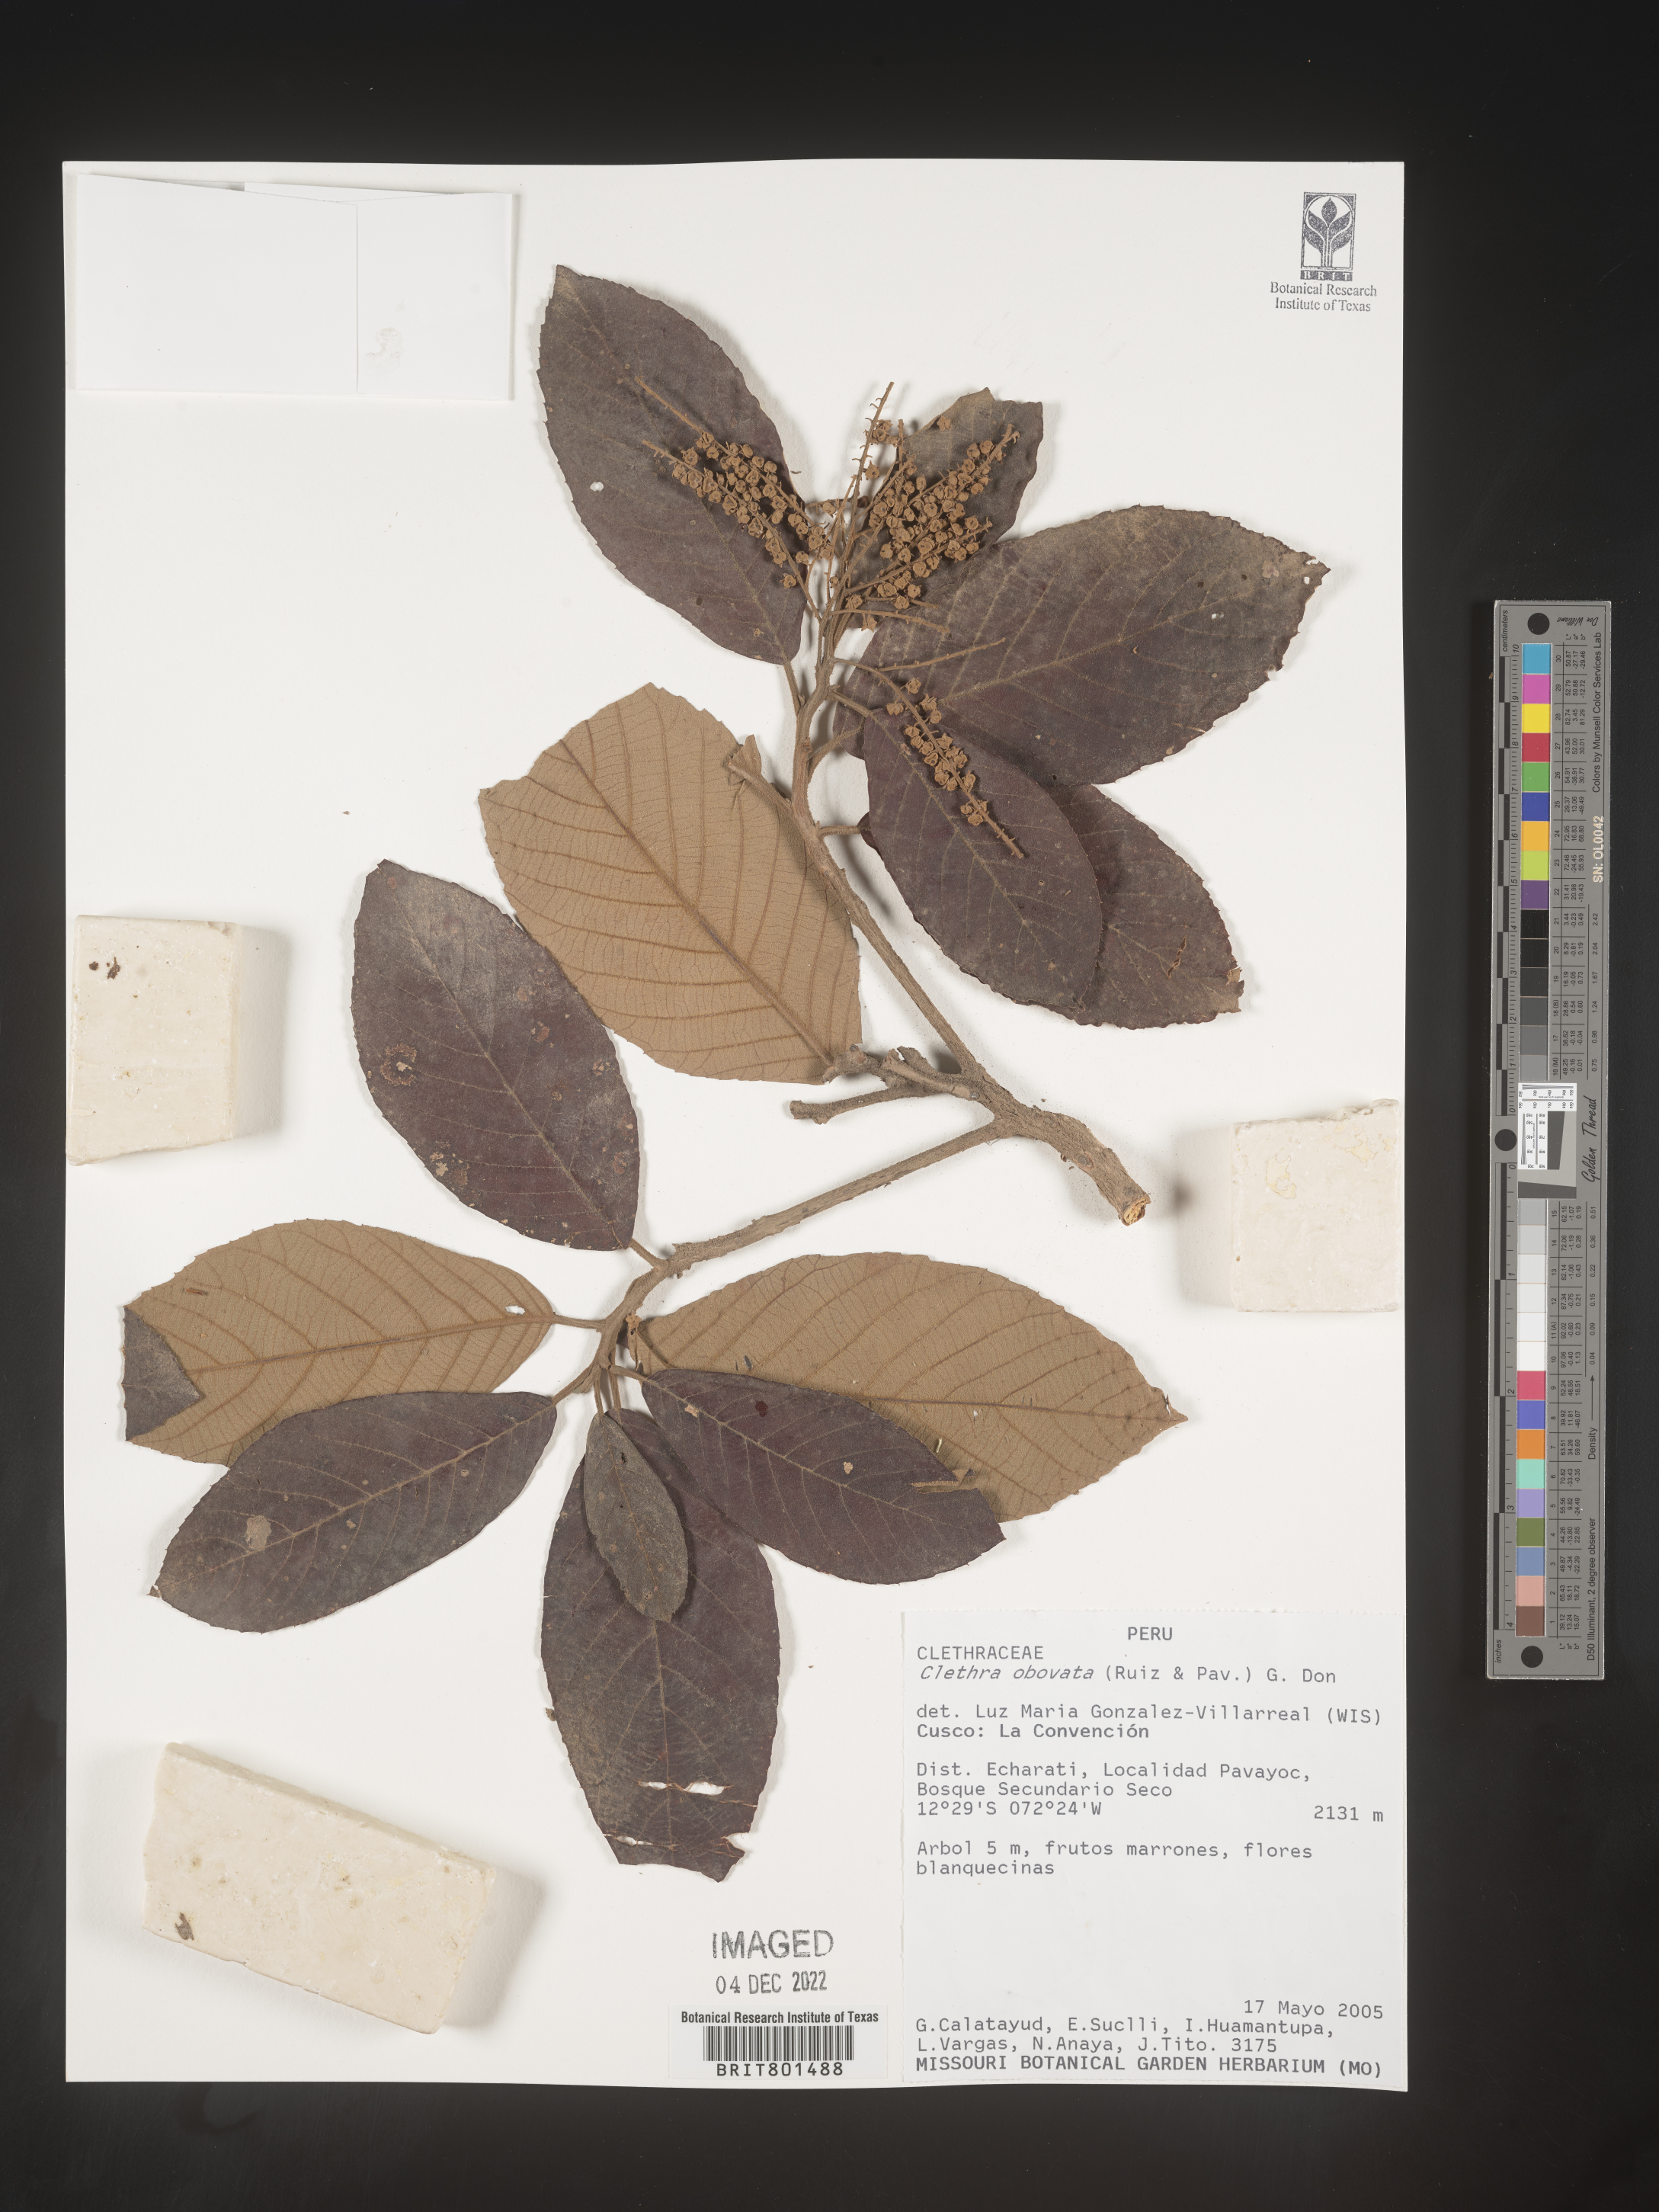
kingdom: Plantae
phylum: Tracheophyta
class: Magnoliopsida
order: Ericales
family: Clethraceae
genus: Clethra
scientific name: Clethra
